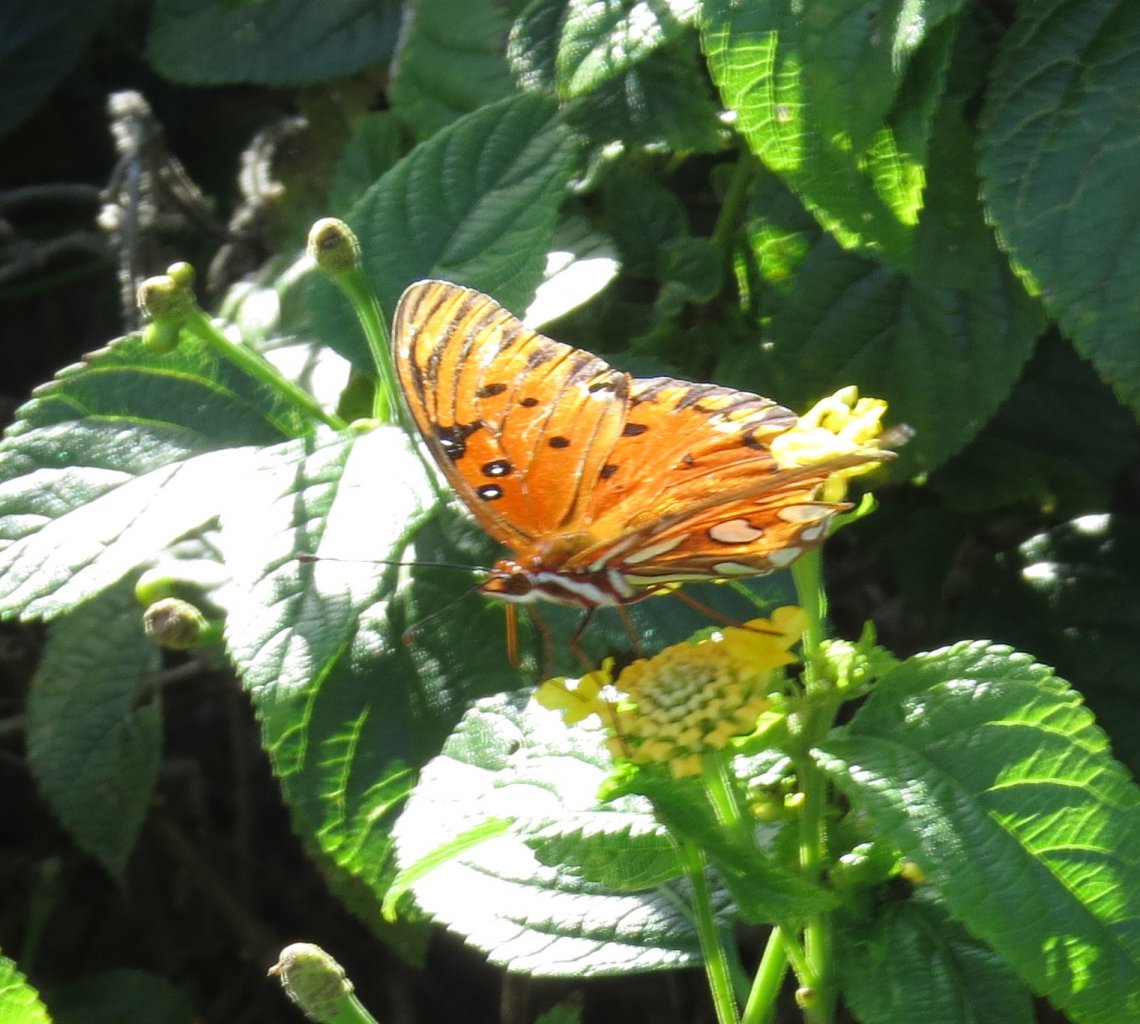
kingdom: Animalia
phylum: Arthropoda
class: Insecta
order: Lepidoptera
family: Nymphalidae
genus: Dione
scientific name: Dione vanillae
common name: Gulf Fritillary
